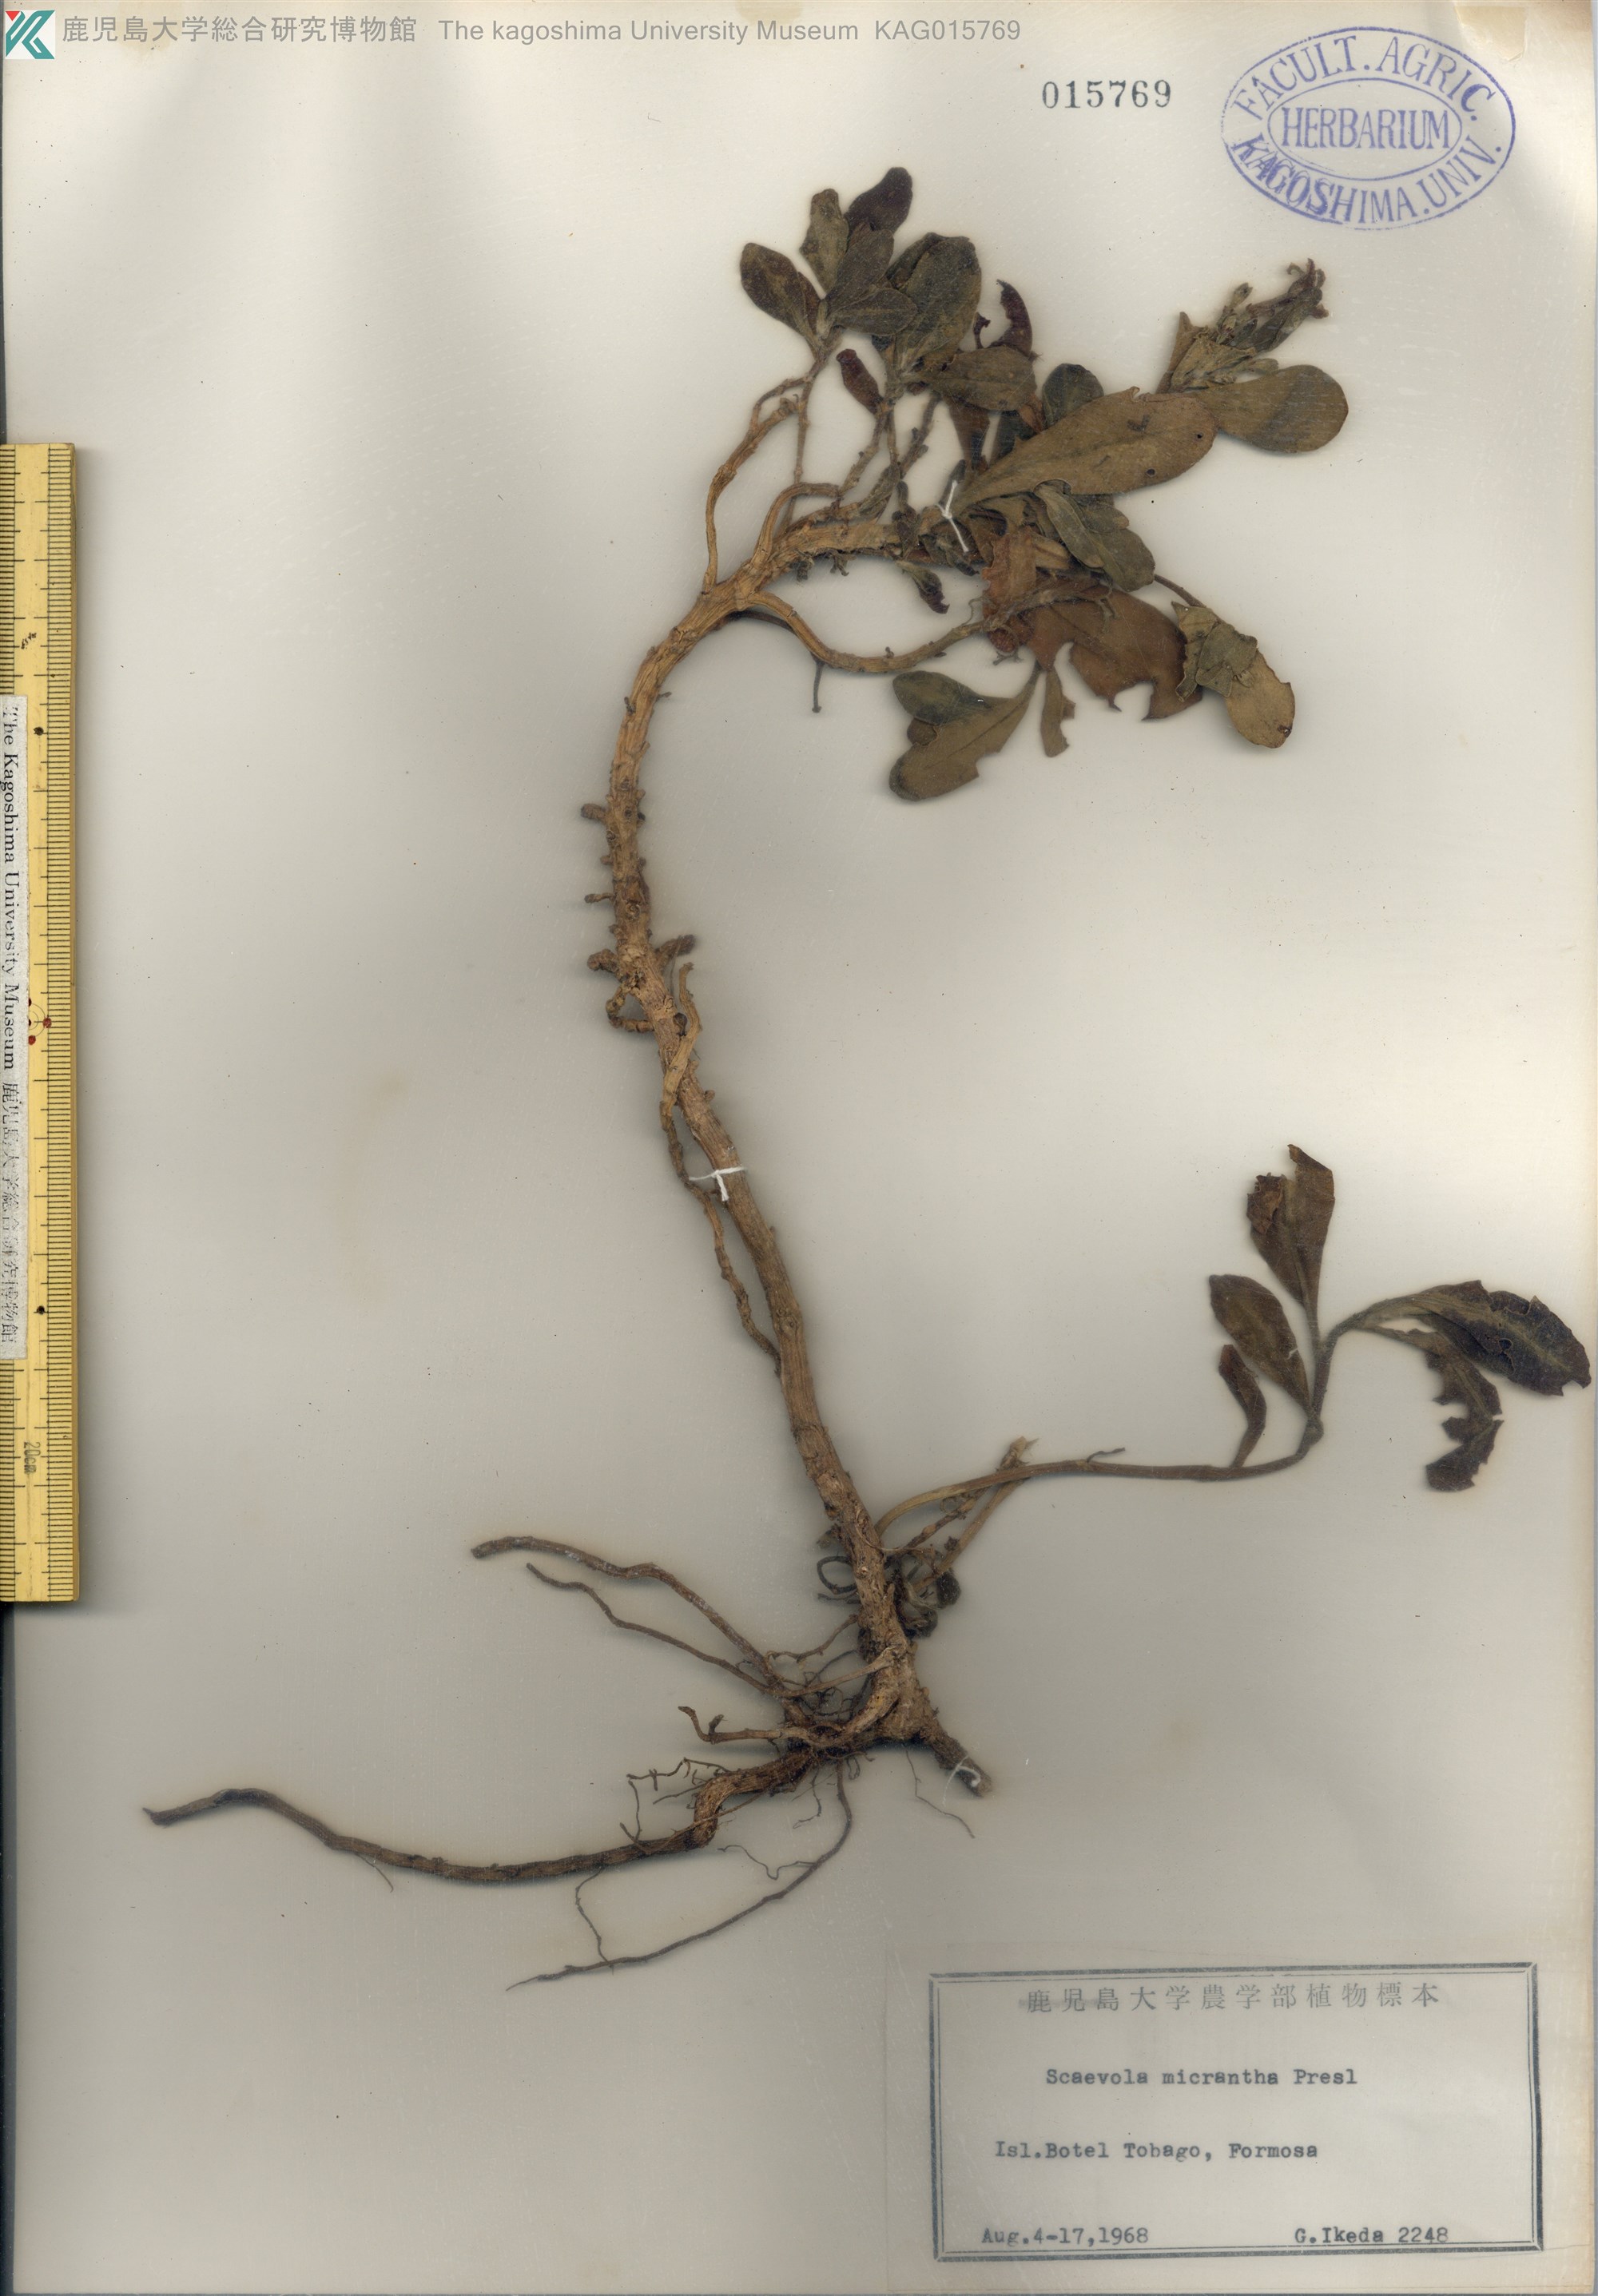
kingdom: Plantae
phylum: Tracheophyta
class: Magnoliopsida
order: Asterales
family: Goodeniaceae
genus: Scaevola
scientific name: Scaevola micrantha
